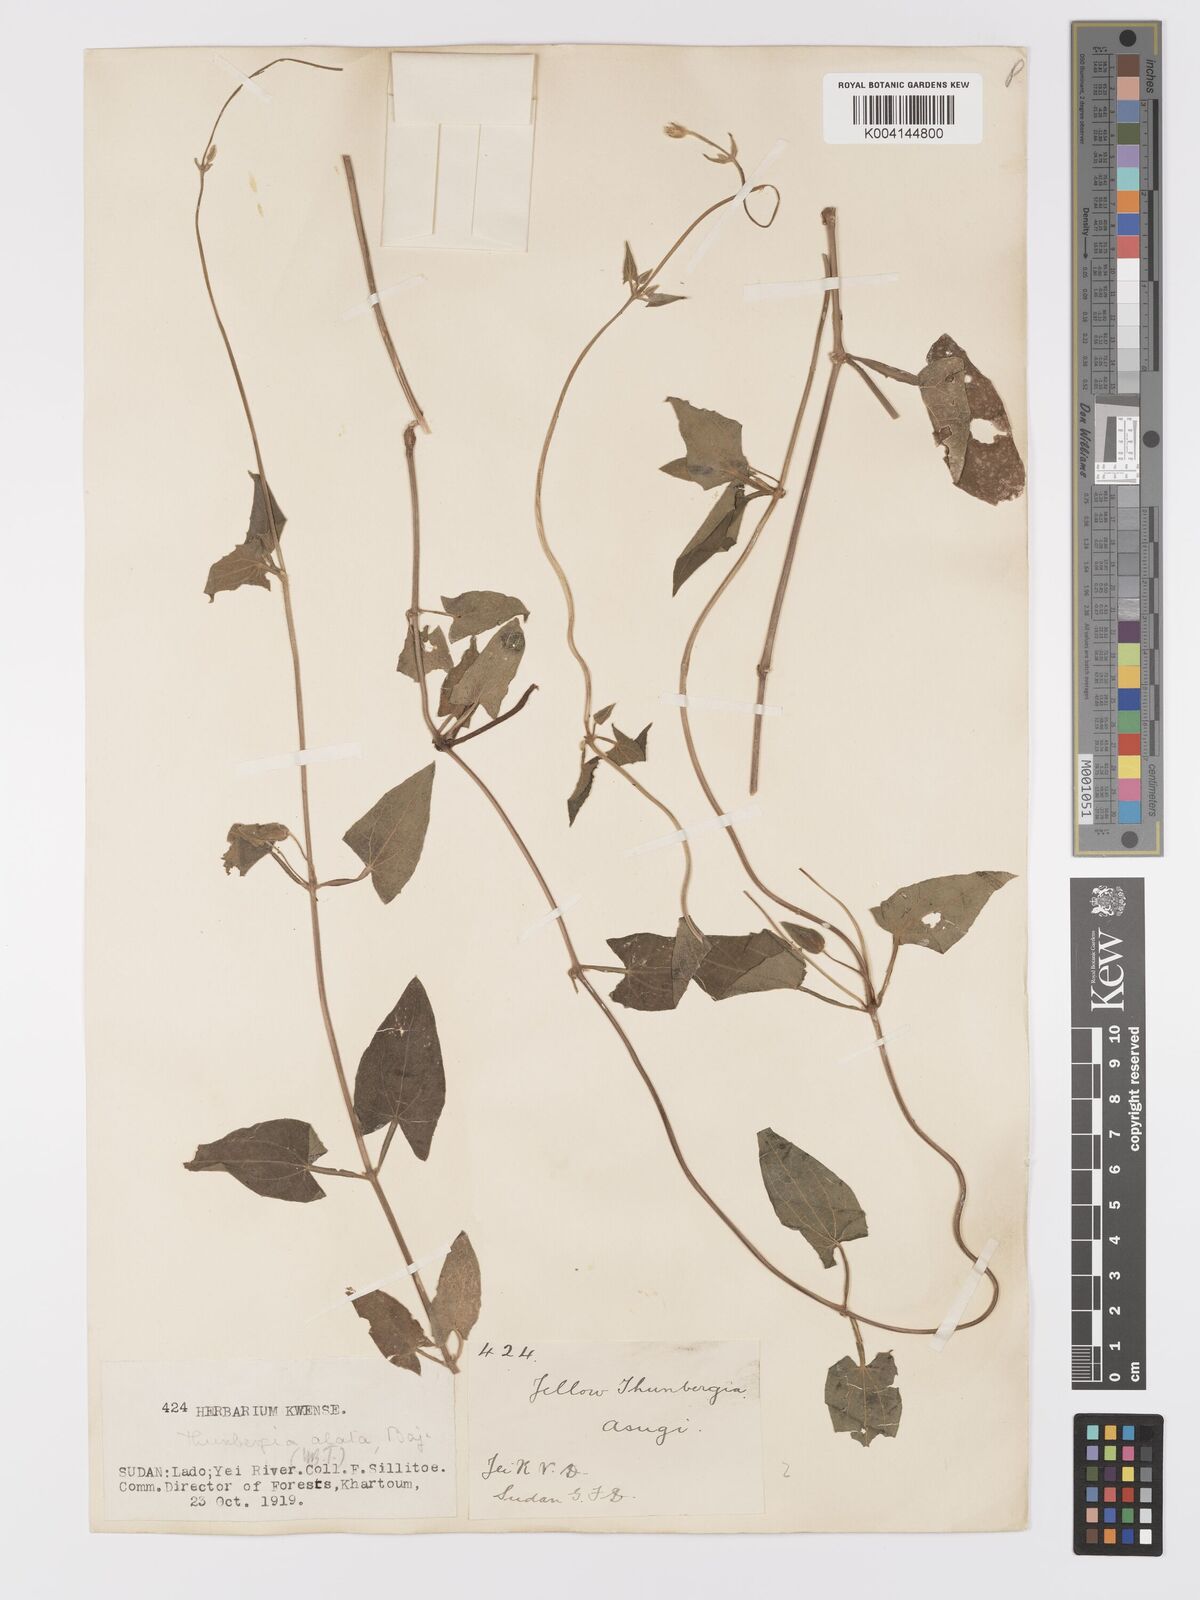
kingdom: Plantae
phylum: Tracheophyta
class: Magnoliopsida
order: Lamiales
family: Acanthaceae
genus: Thunbergia
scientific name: Thunbergia alata
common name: Blackeyed susan vine
